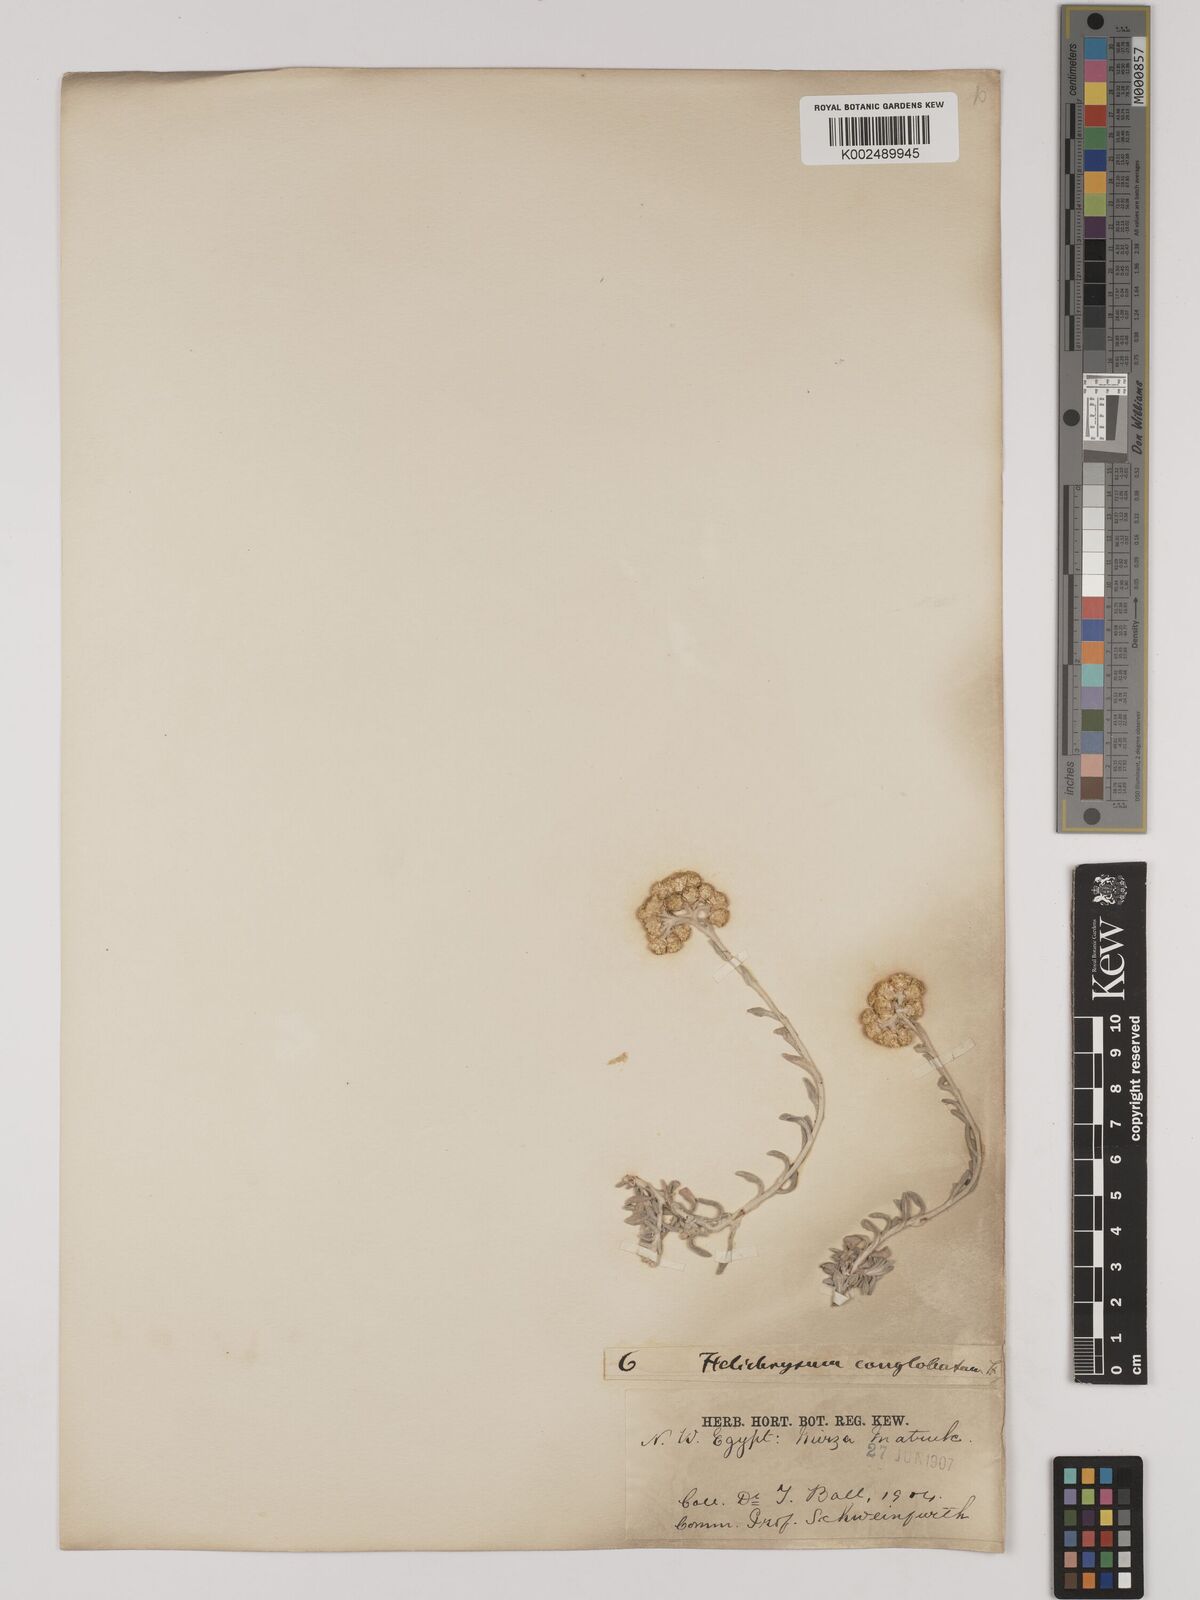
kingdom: Plantae
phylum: Tracheophyta
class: Magnoliopsida
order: Asterales
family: Asteraceae
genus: Helichrysum
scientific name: Helichrysum stoechas
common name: Goldilocks
